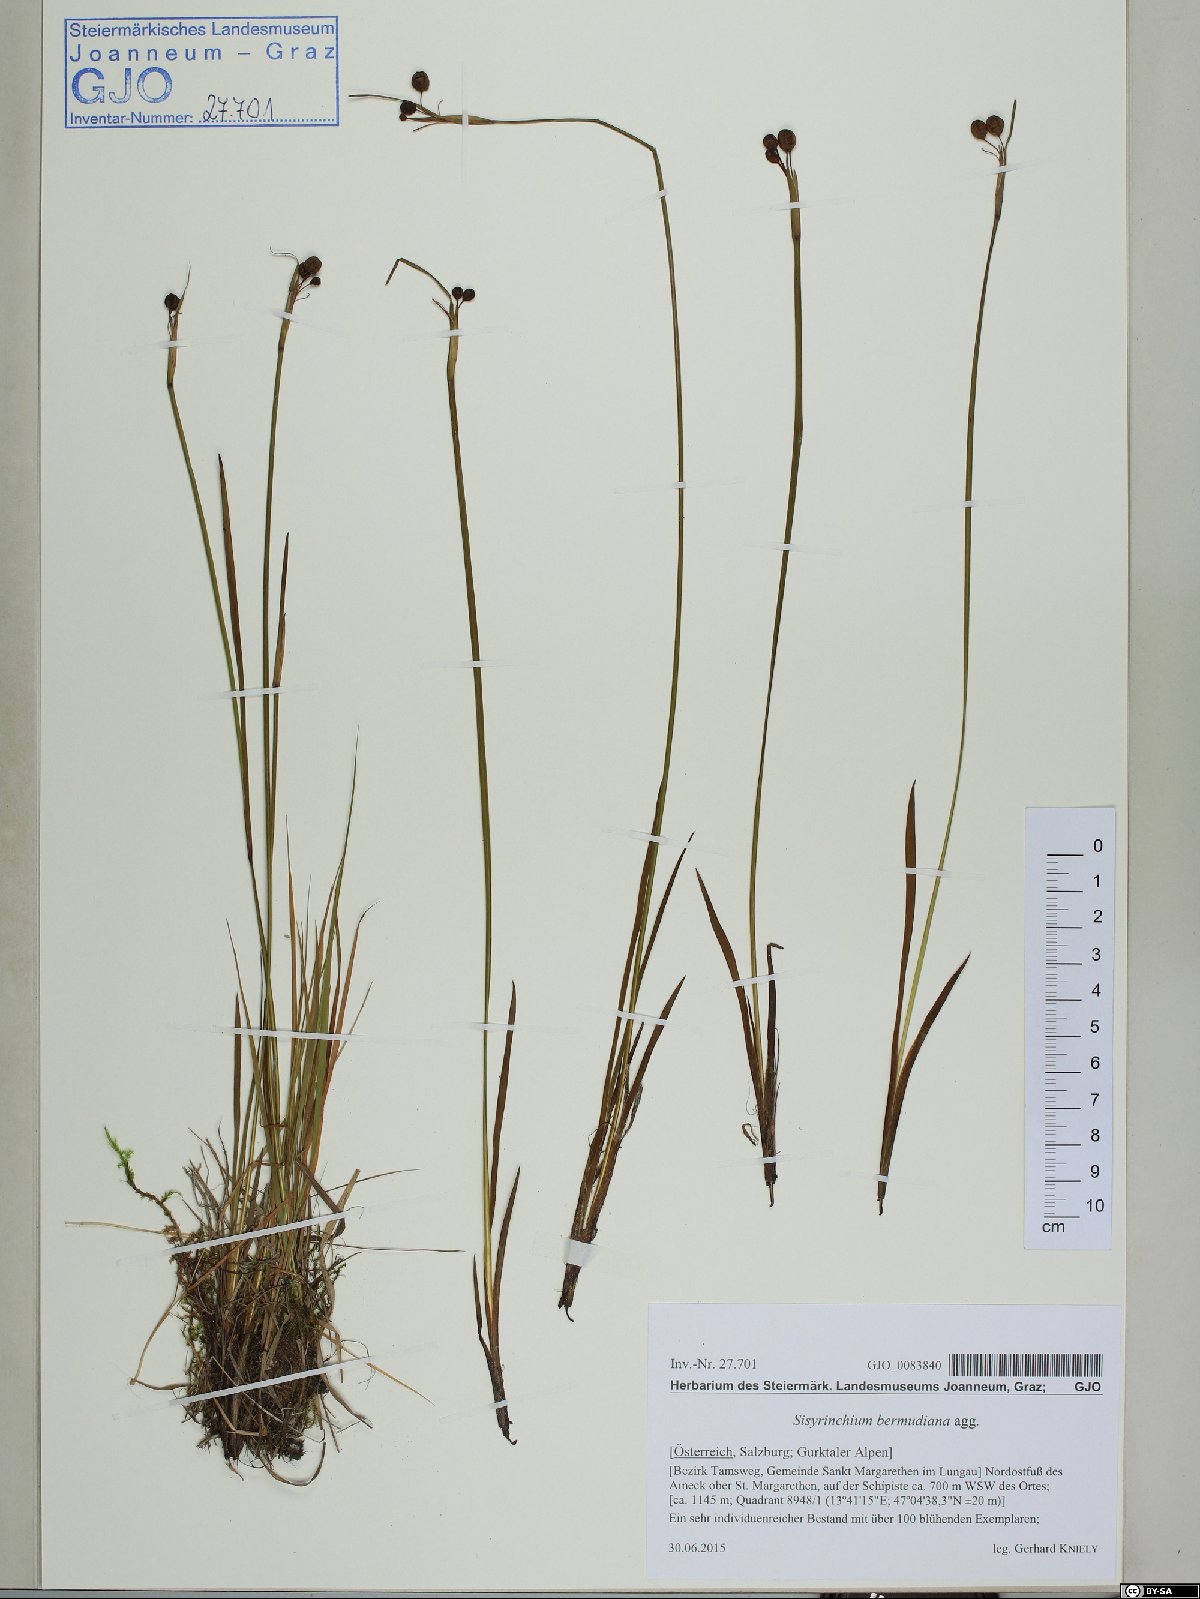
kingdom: Plantae
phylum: Tracheophyta
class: Liliopsida
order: Asparagales
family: Iridaceae
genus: Sisyrinchium
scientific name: Sisyrinchium bermudiana
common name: Blue-eyed-grass
